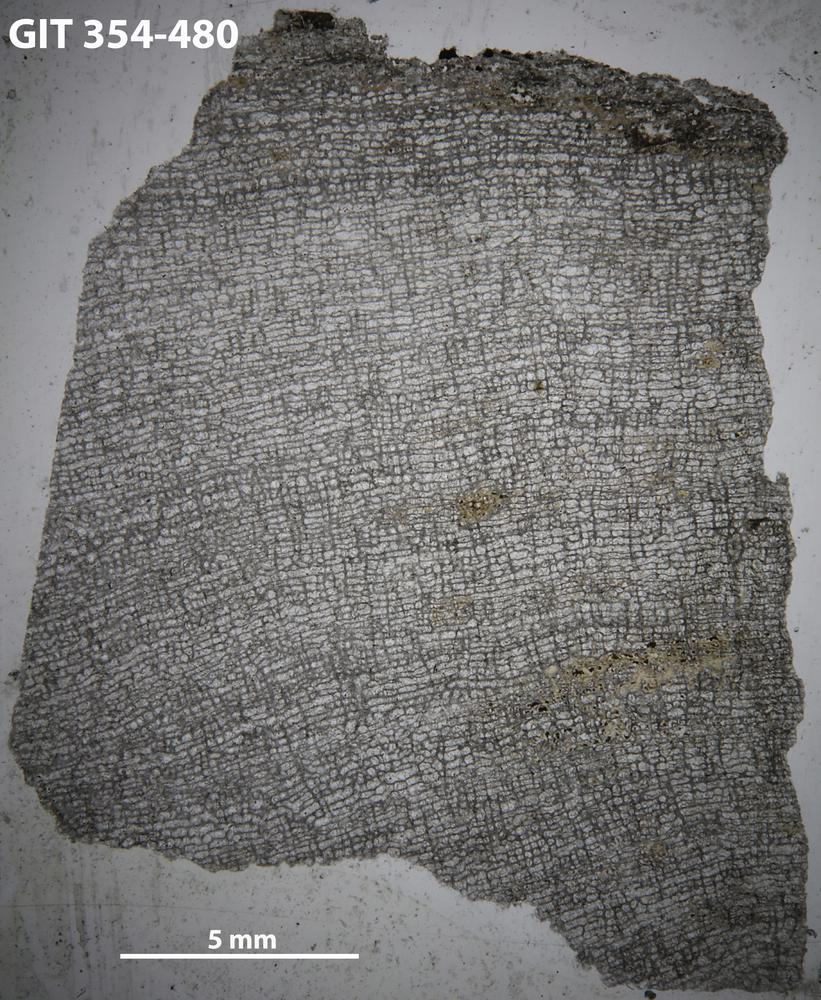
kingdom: Animalia
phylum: Porifera
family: Clathrodictyidae
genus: Oslodictyon
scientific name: Oslodictyon
